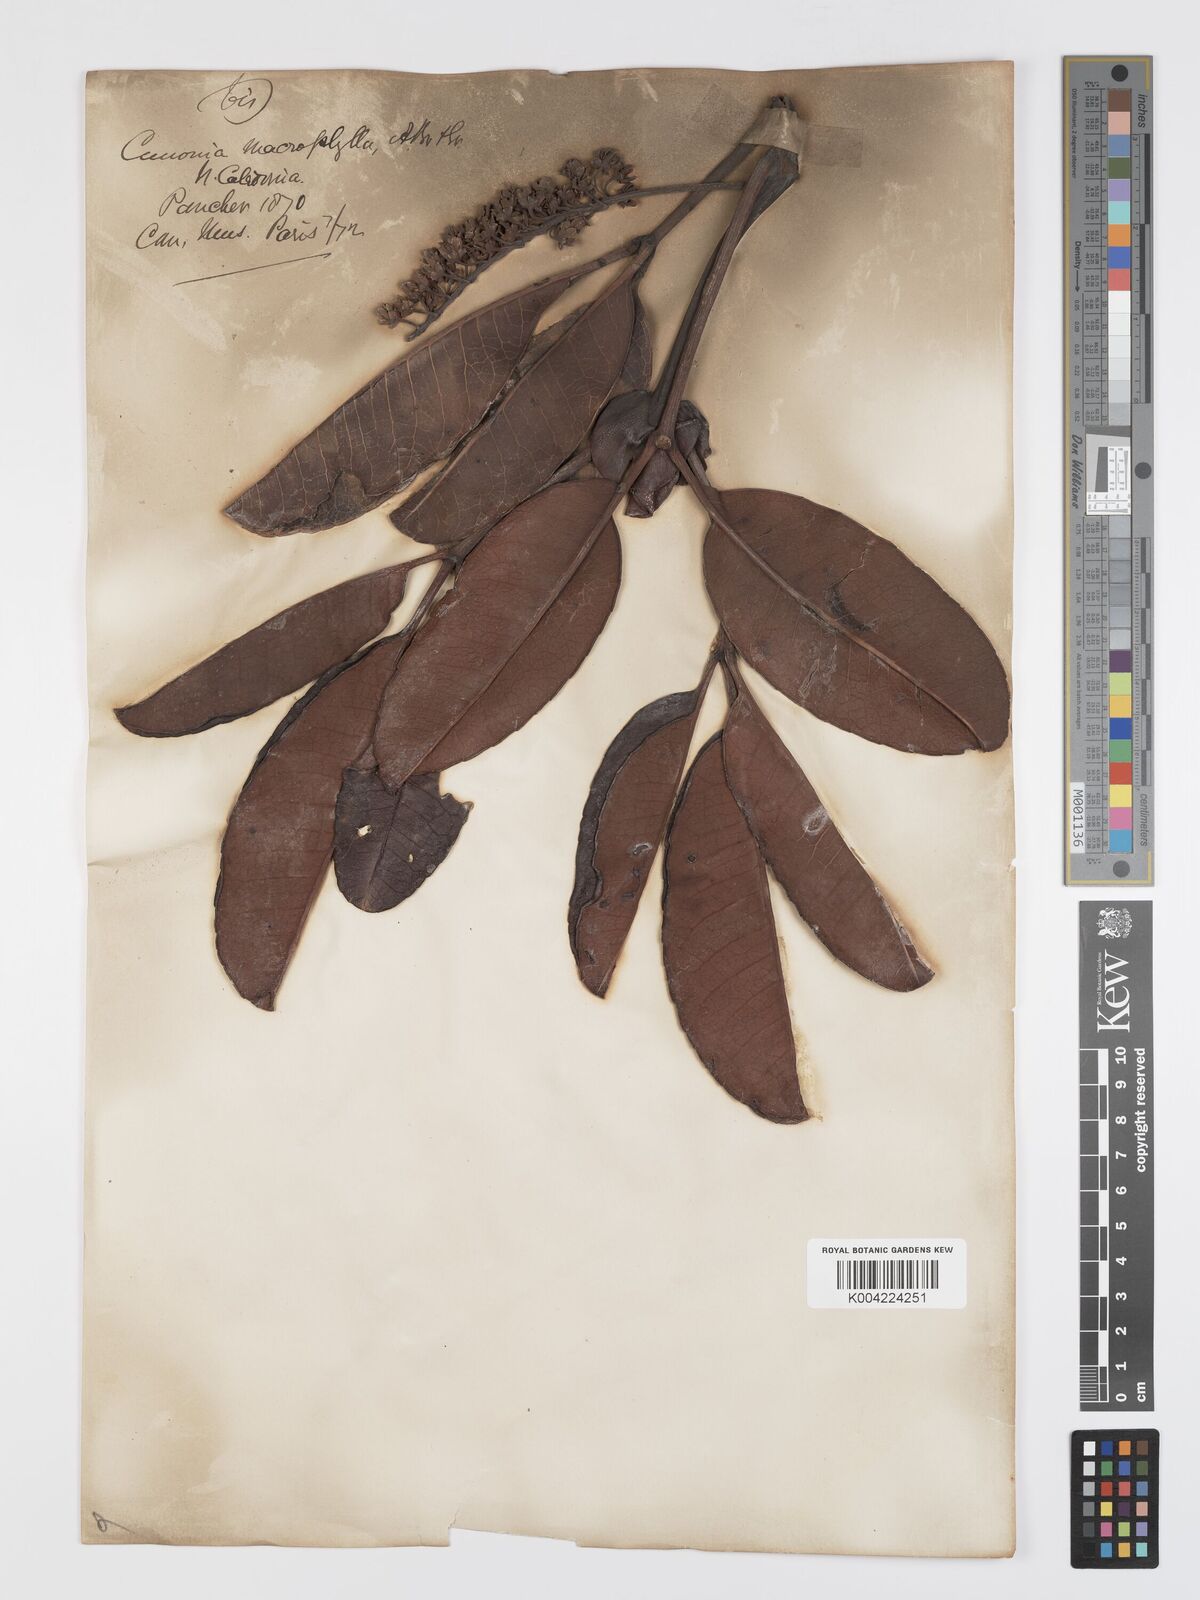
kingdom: Plantae
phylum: Tracheophyta
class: Magnoliopsida
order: Oxalidales
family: Cunoniaceae
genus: Cunonia
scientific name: Cunonia macrophylla
